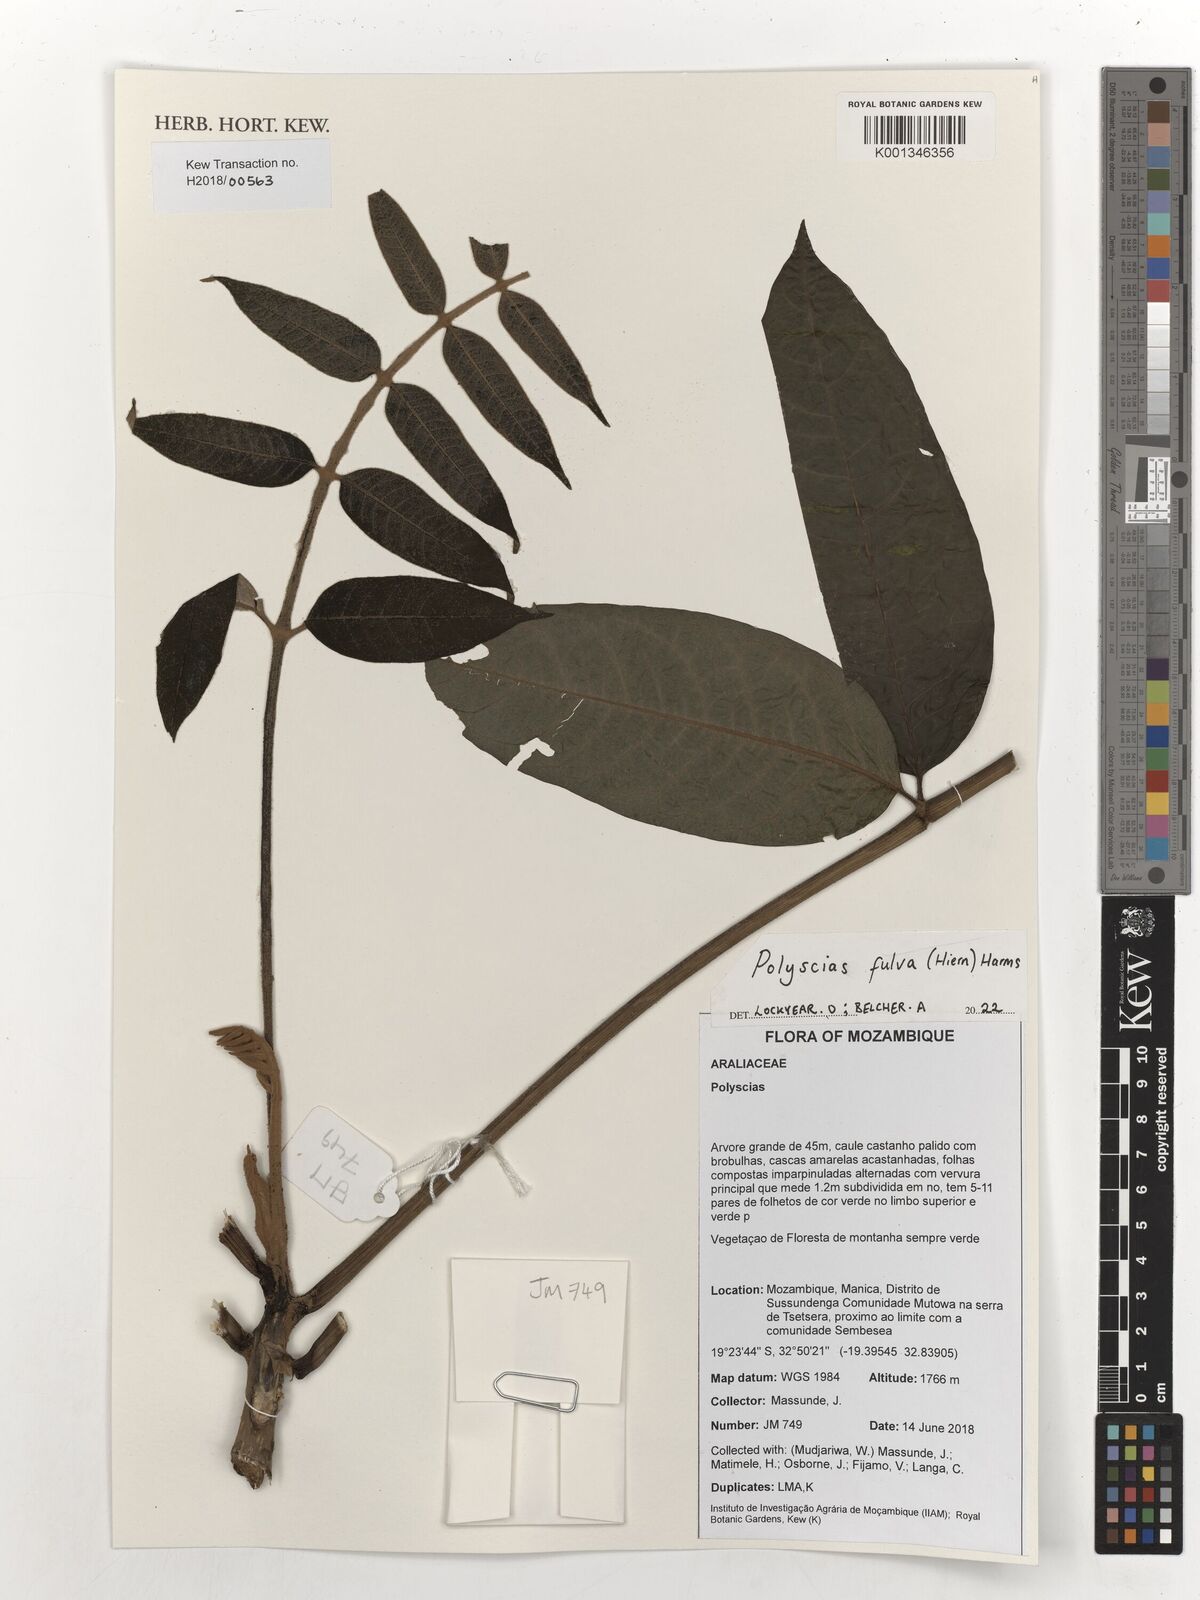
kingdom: Plantae
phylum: Tracheophyta
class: Magnoliopsida
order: Apiales
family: Araliaceae
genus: Polyscias
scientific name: Polyscias fulva
